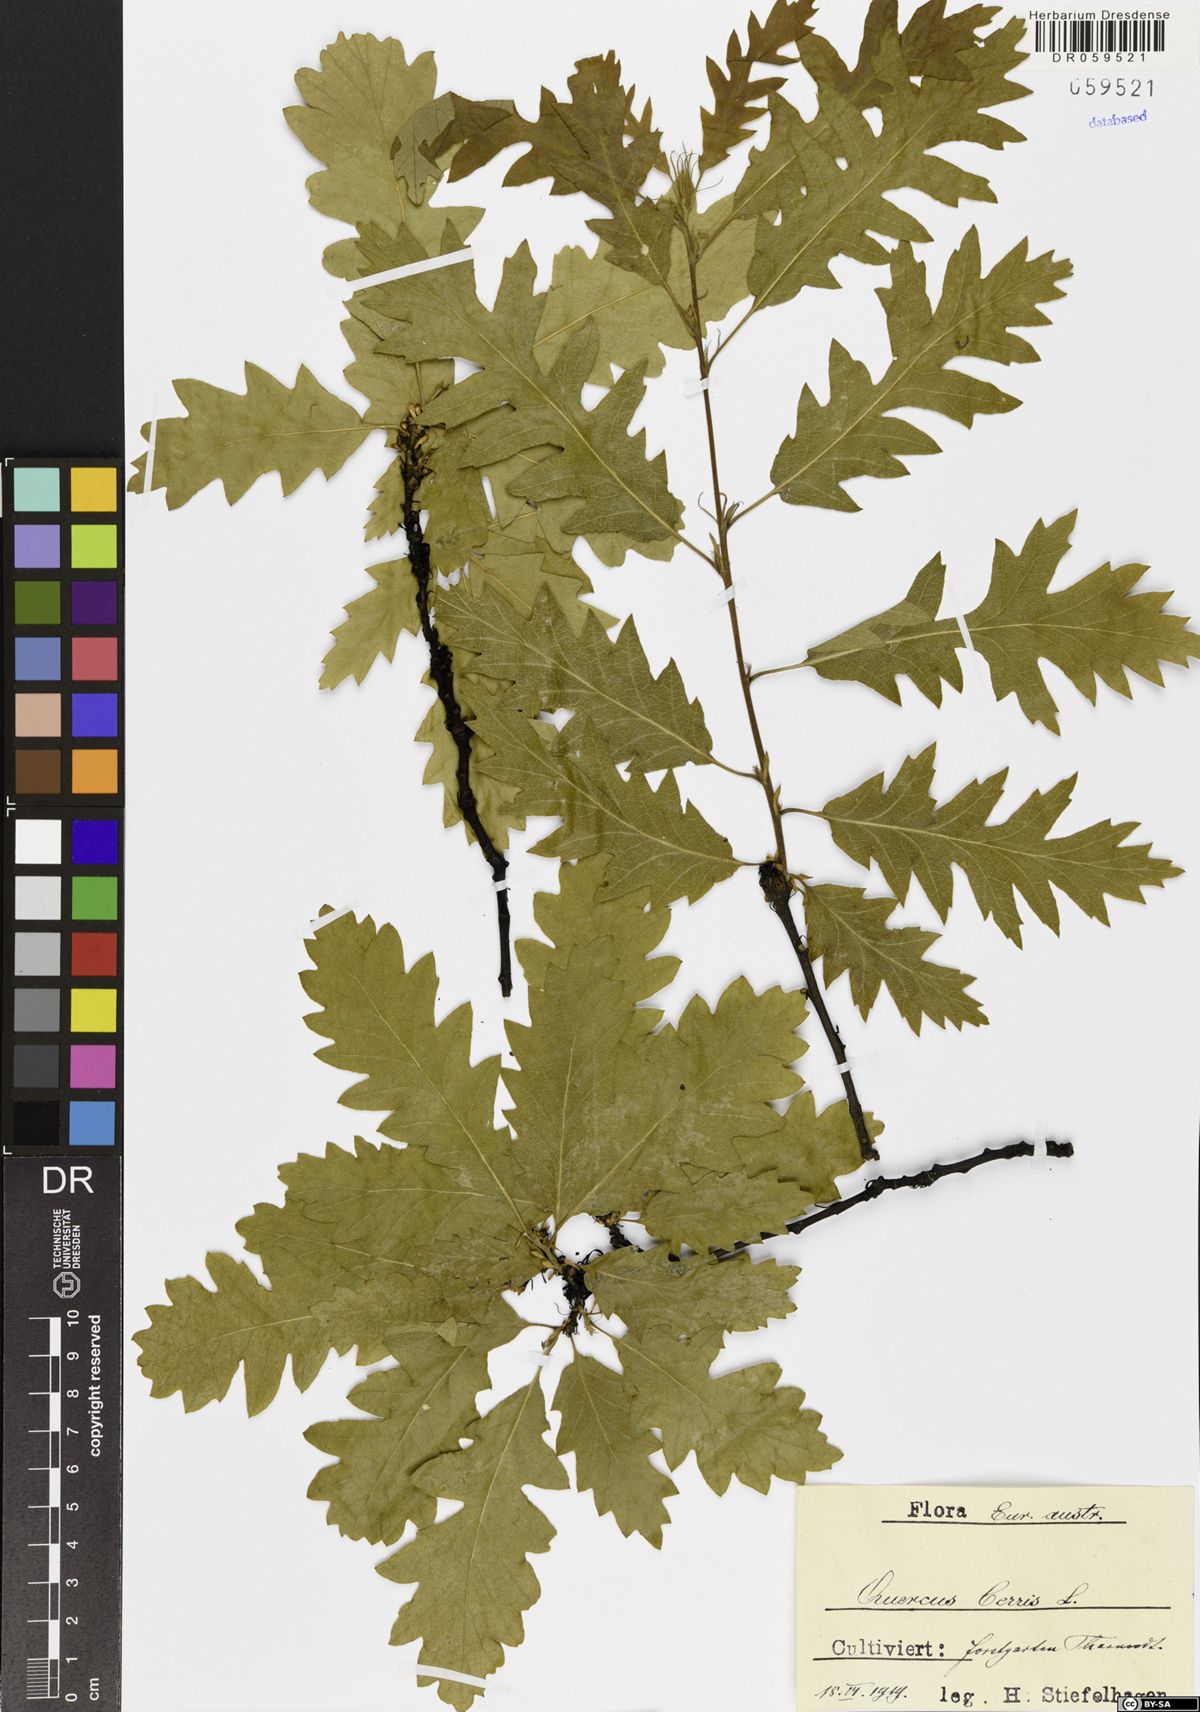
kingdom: Plantae
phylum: Tracheophyta
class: Magnoliopsida
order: Fagales
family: Fagaceae
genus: Quercus
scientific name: Quercus cerris
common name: Turkey oak
